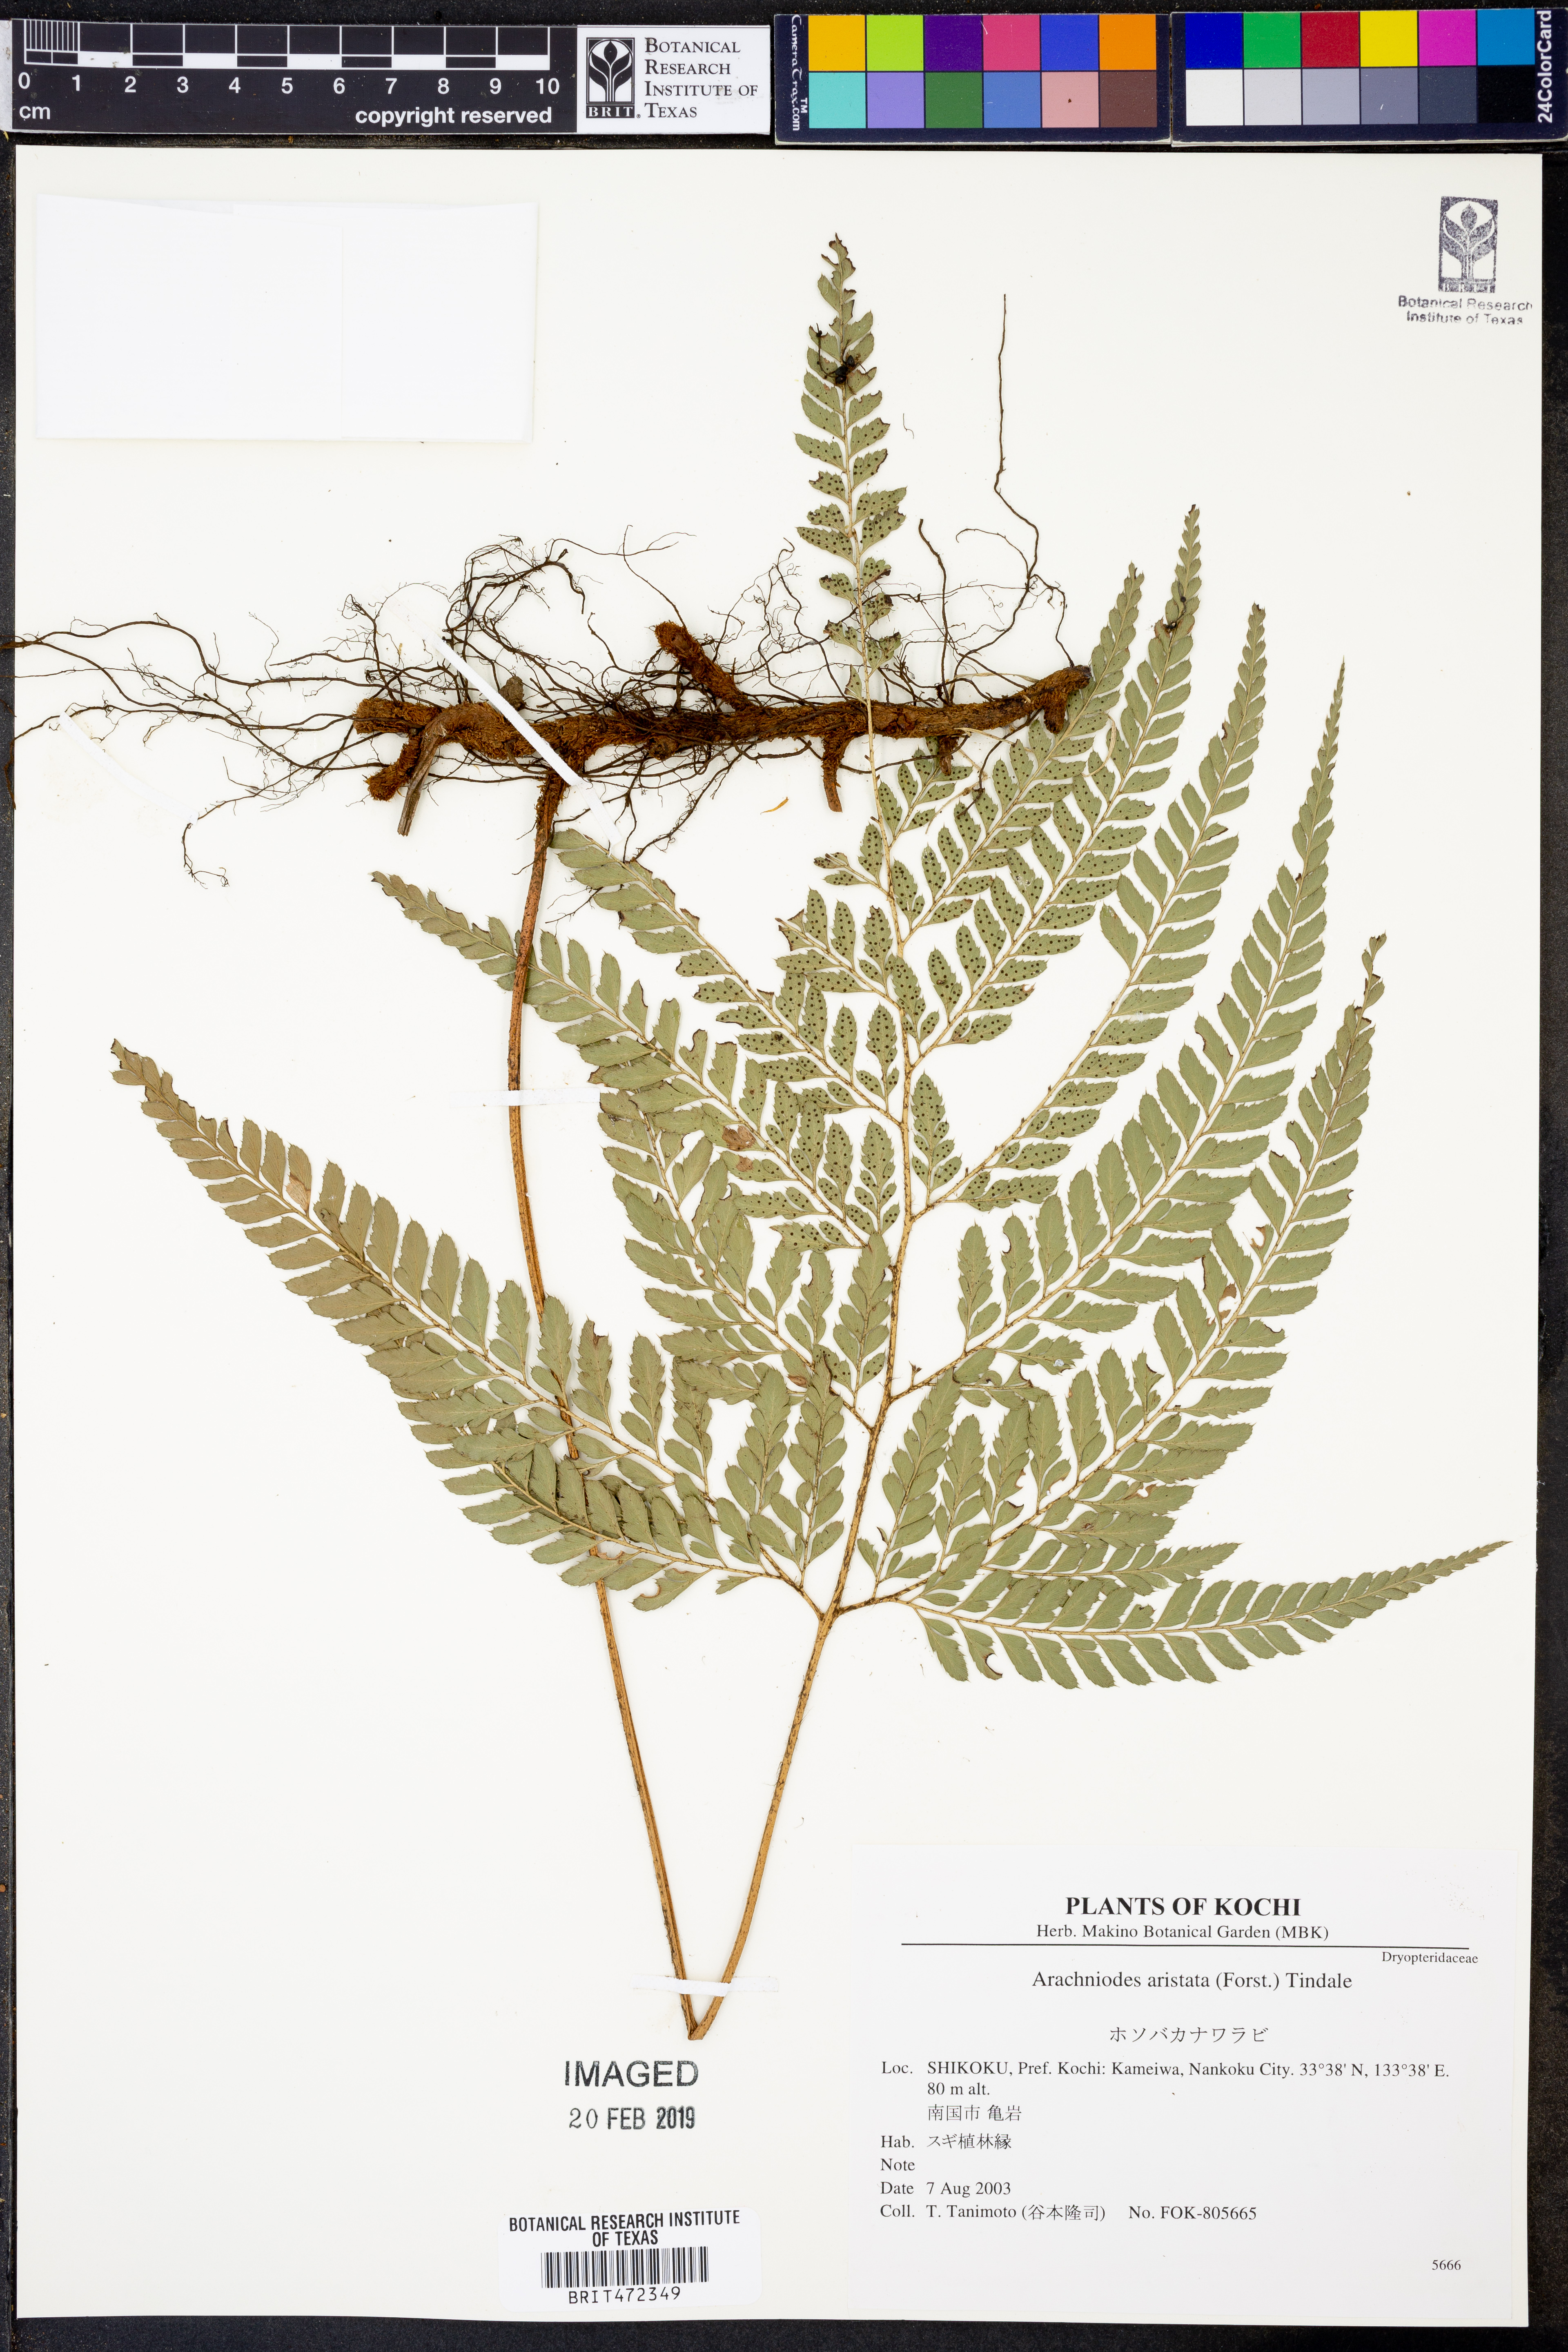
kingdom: Plantae
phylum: Tracheophyta
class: Polypodiopsida
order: Polypodiales
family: Dryopteridaceae
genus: Arachniodes
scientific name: Arachniodes aristata
